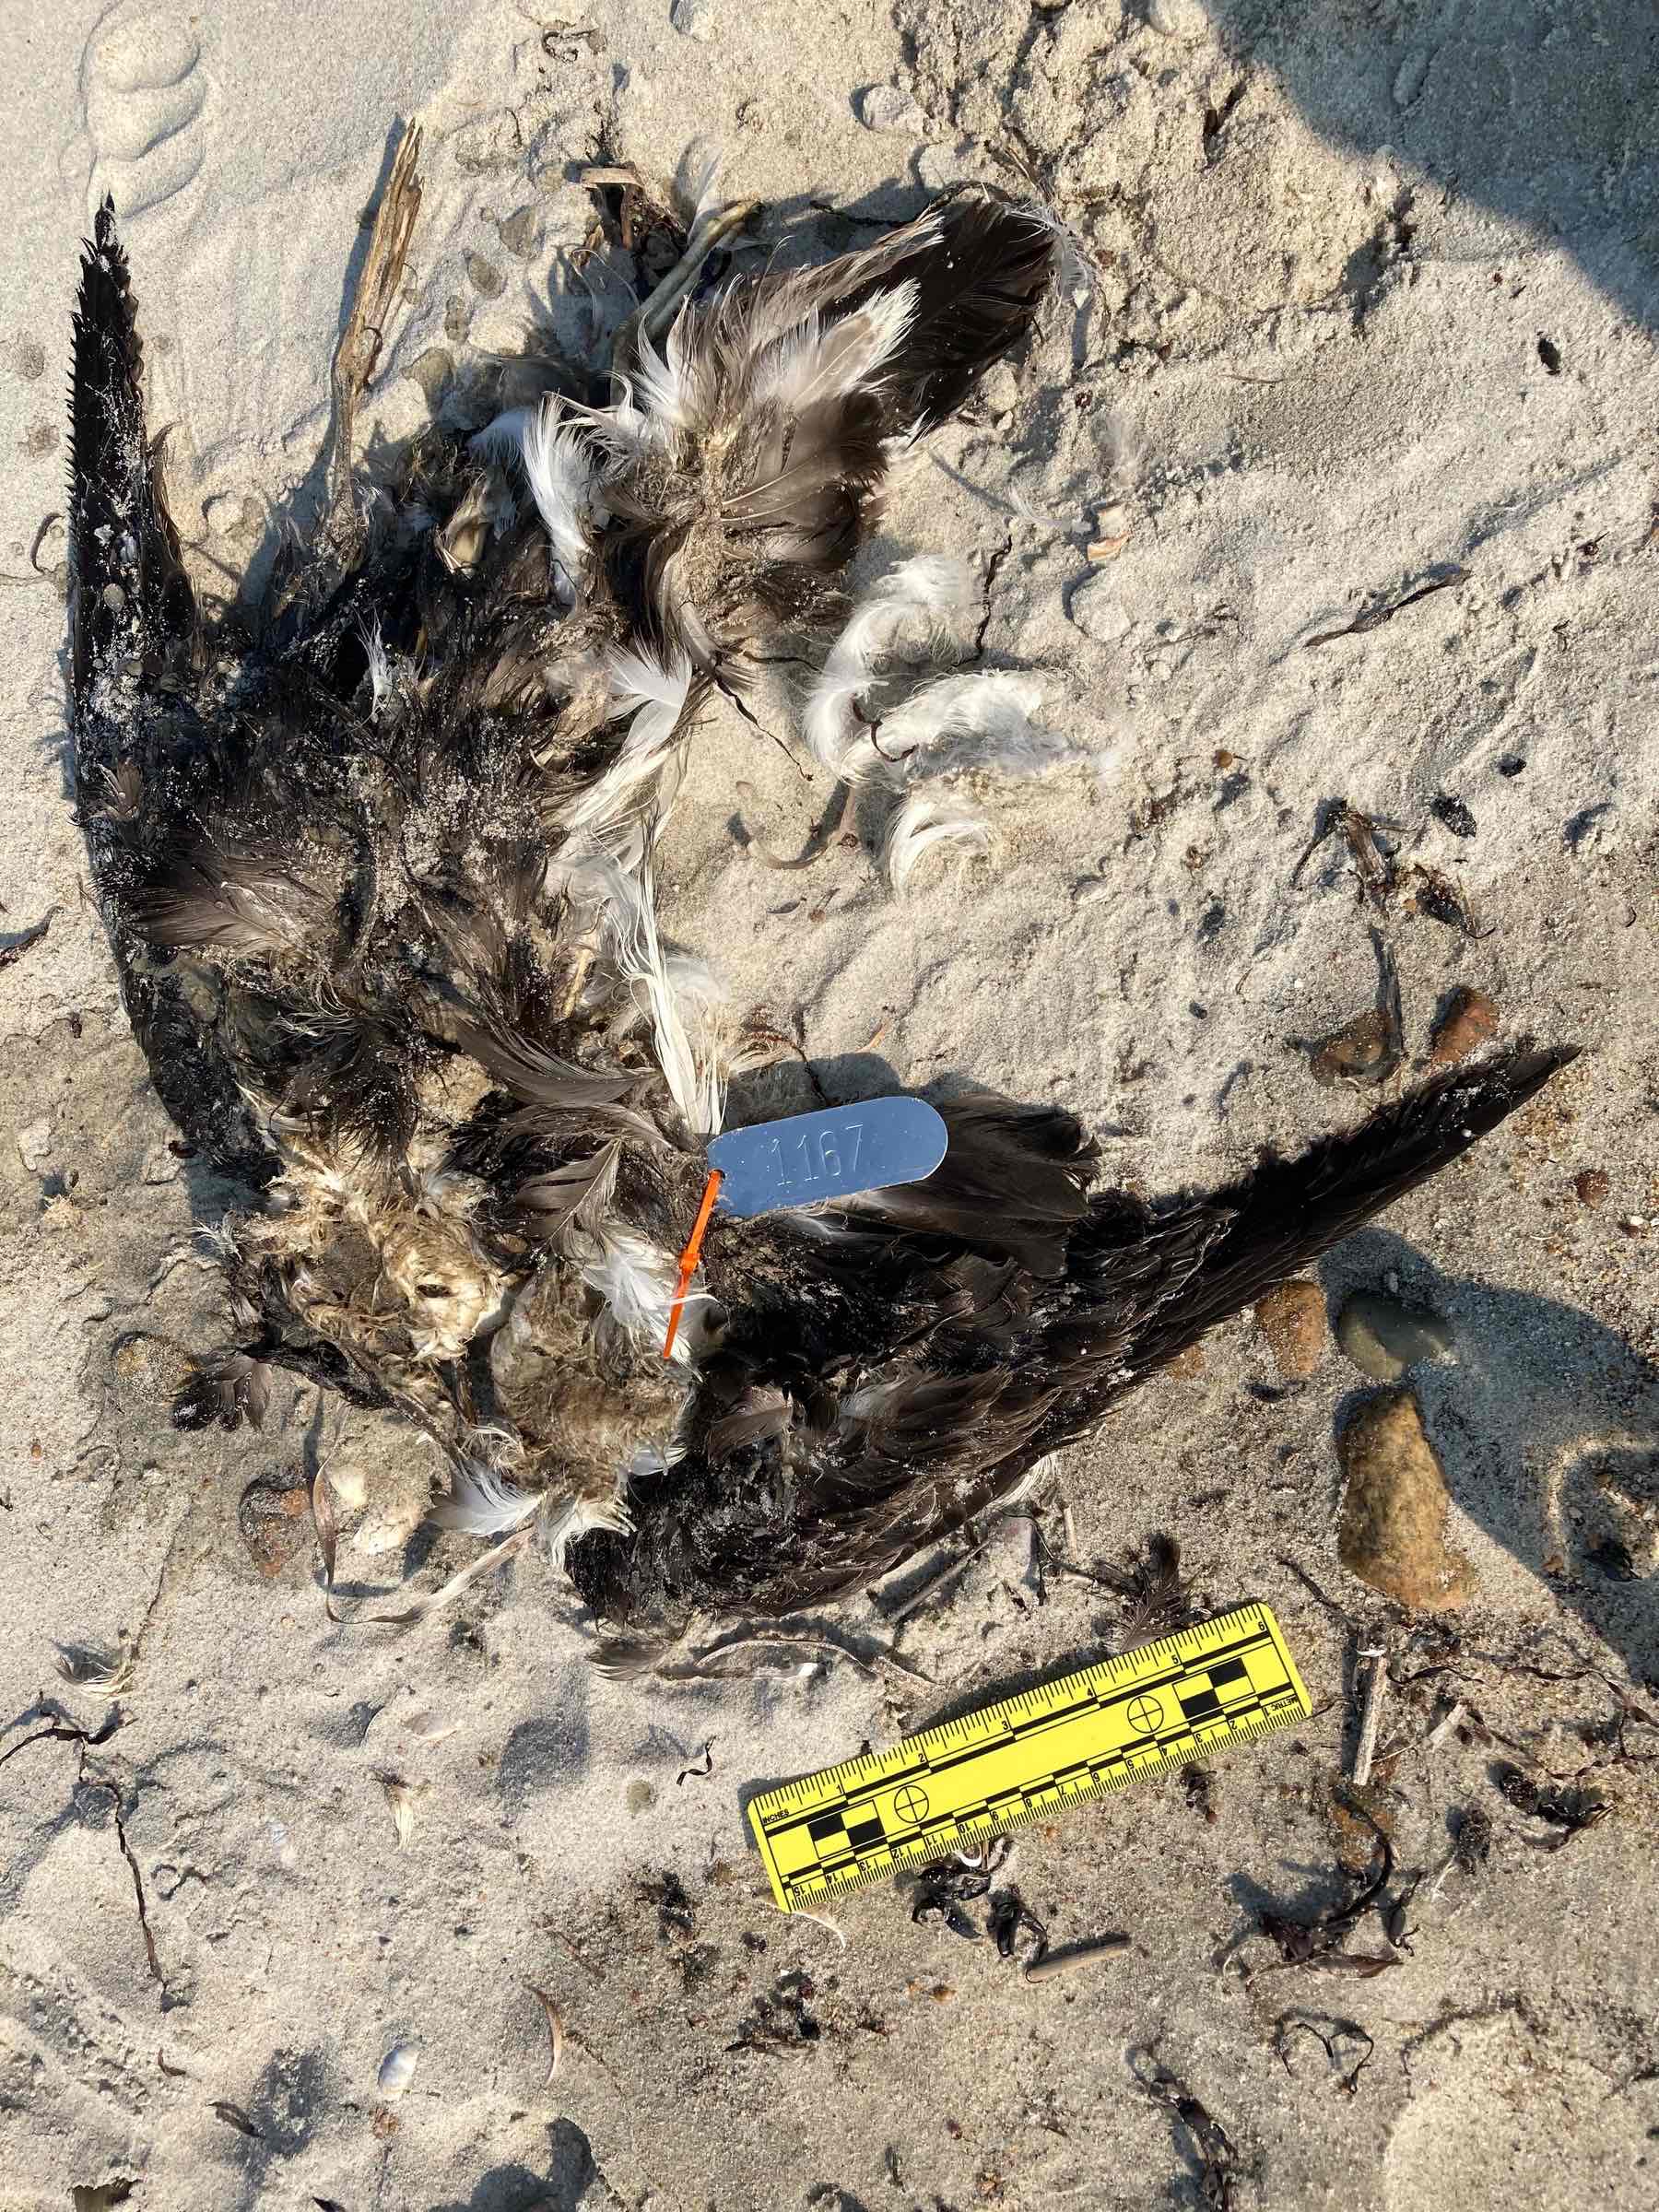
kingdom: Animalia
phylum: Chordata
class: Aves
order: Procellariiformes
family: Procellariidae
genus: Puffinus
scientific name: Puffinus gravis
